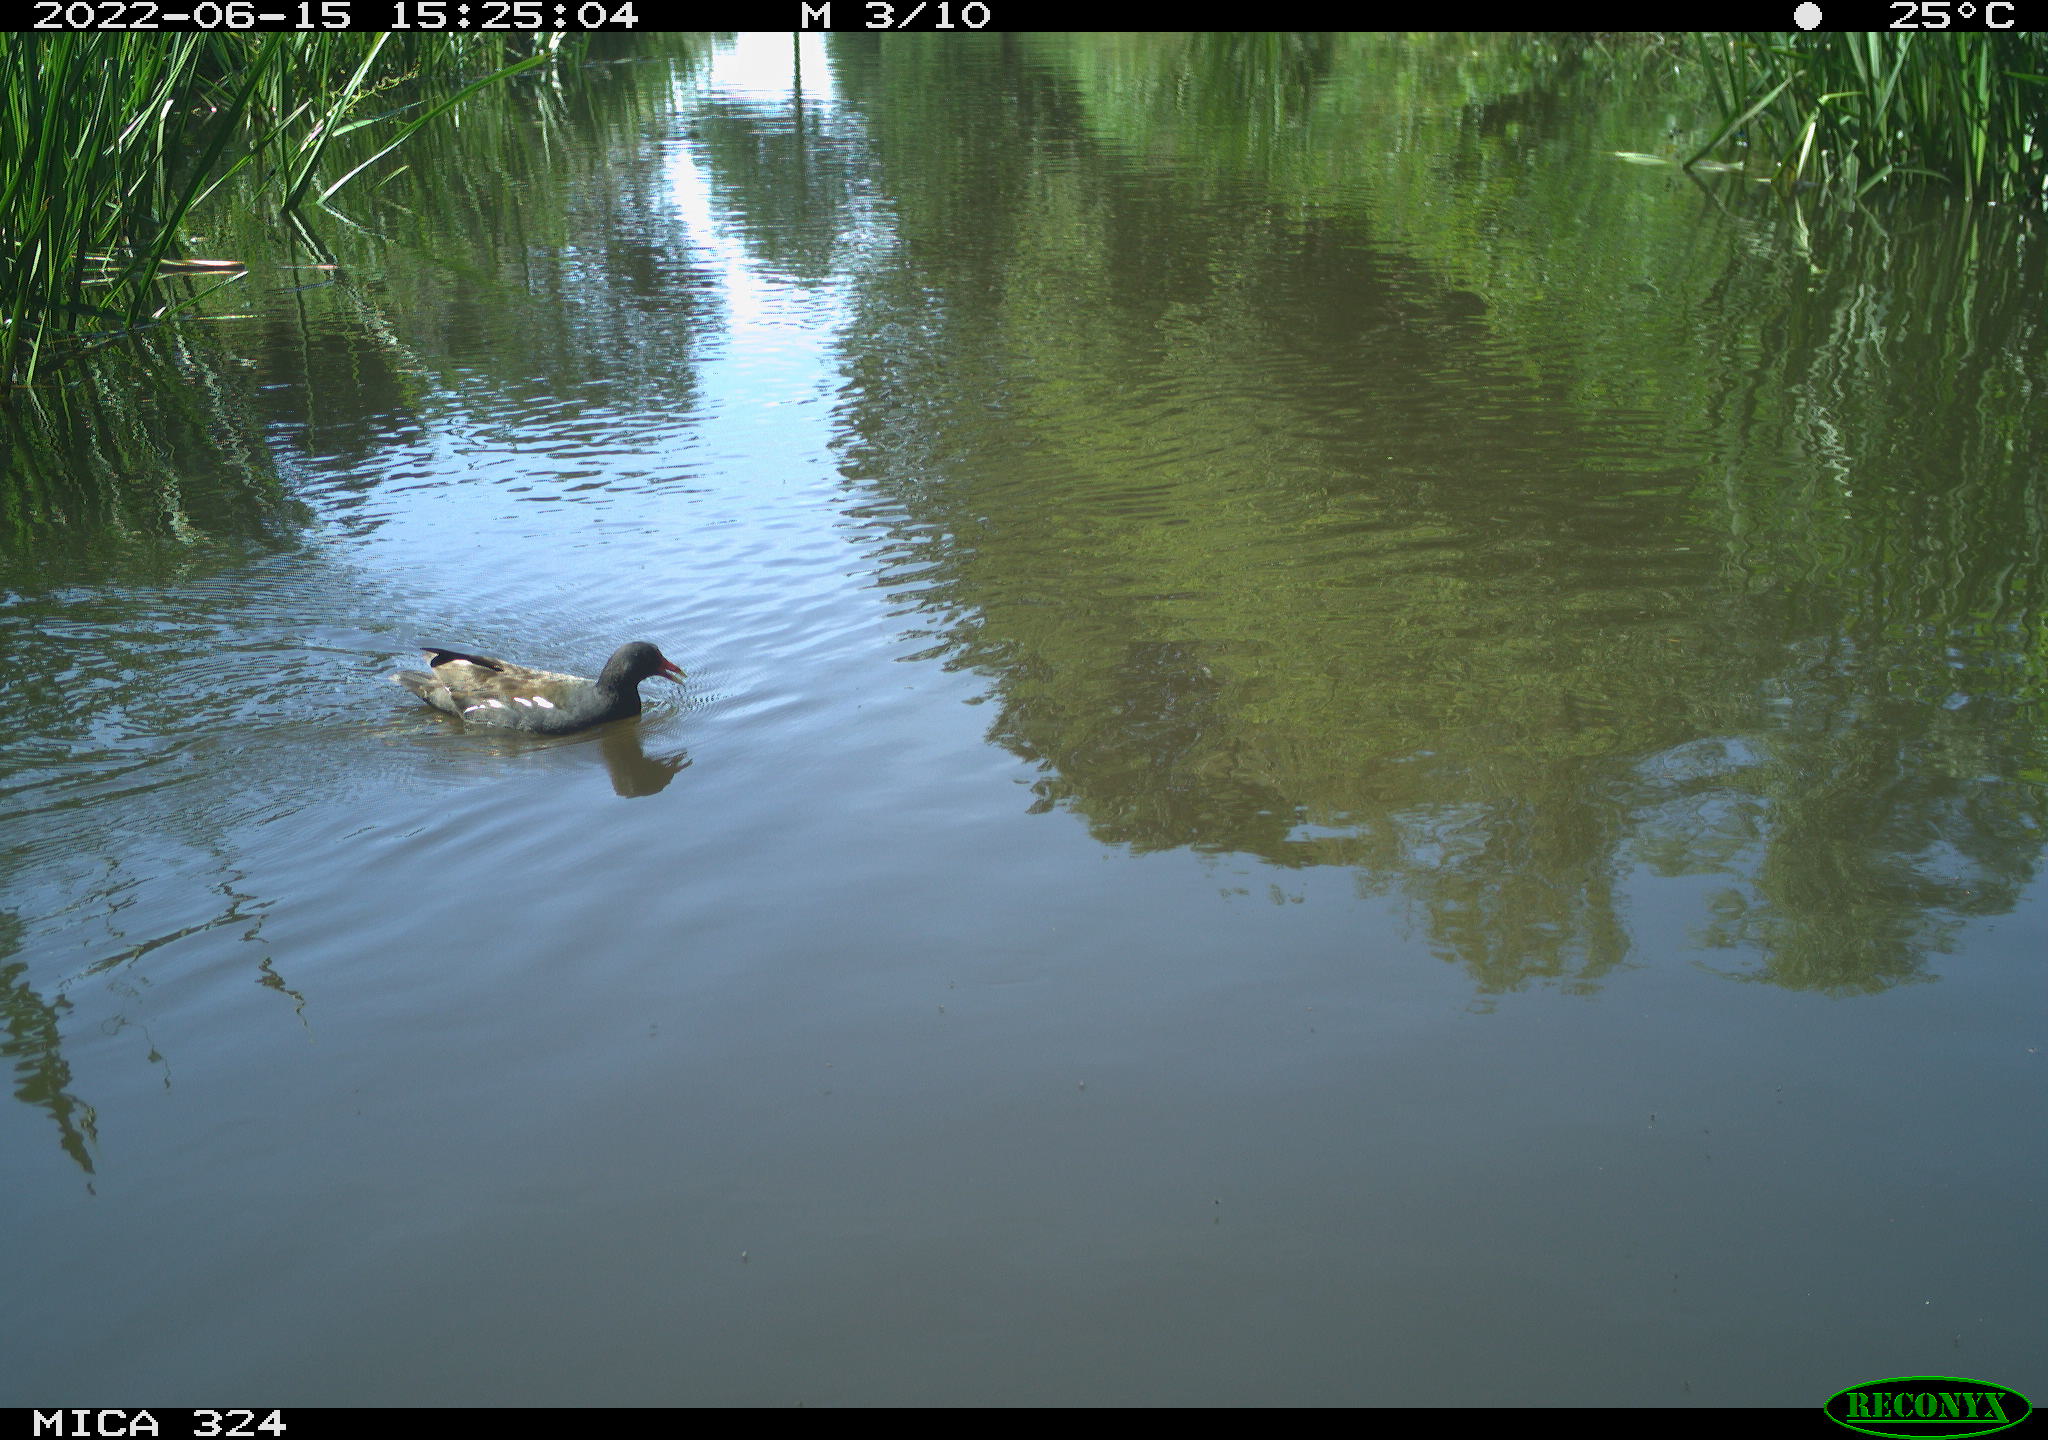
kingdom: Animalia
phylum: Chordata
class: Aves
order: Gruiformes
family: Rallidae
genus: Gallinula
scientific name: Gallinula chloropus
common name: Common moorhen
